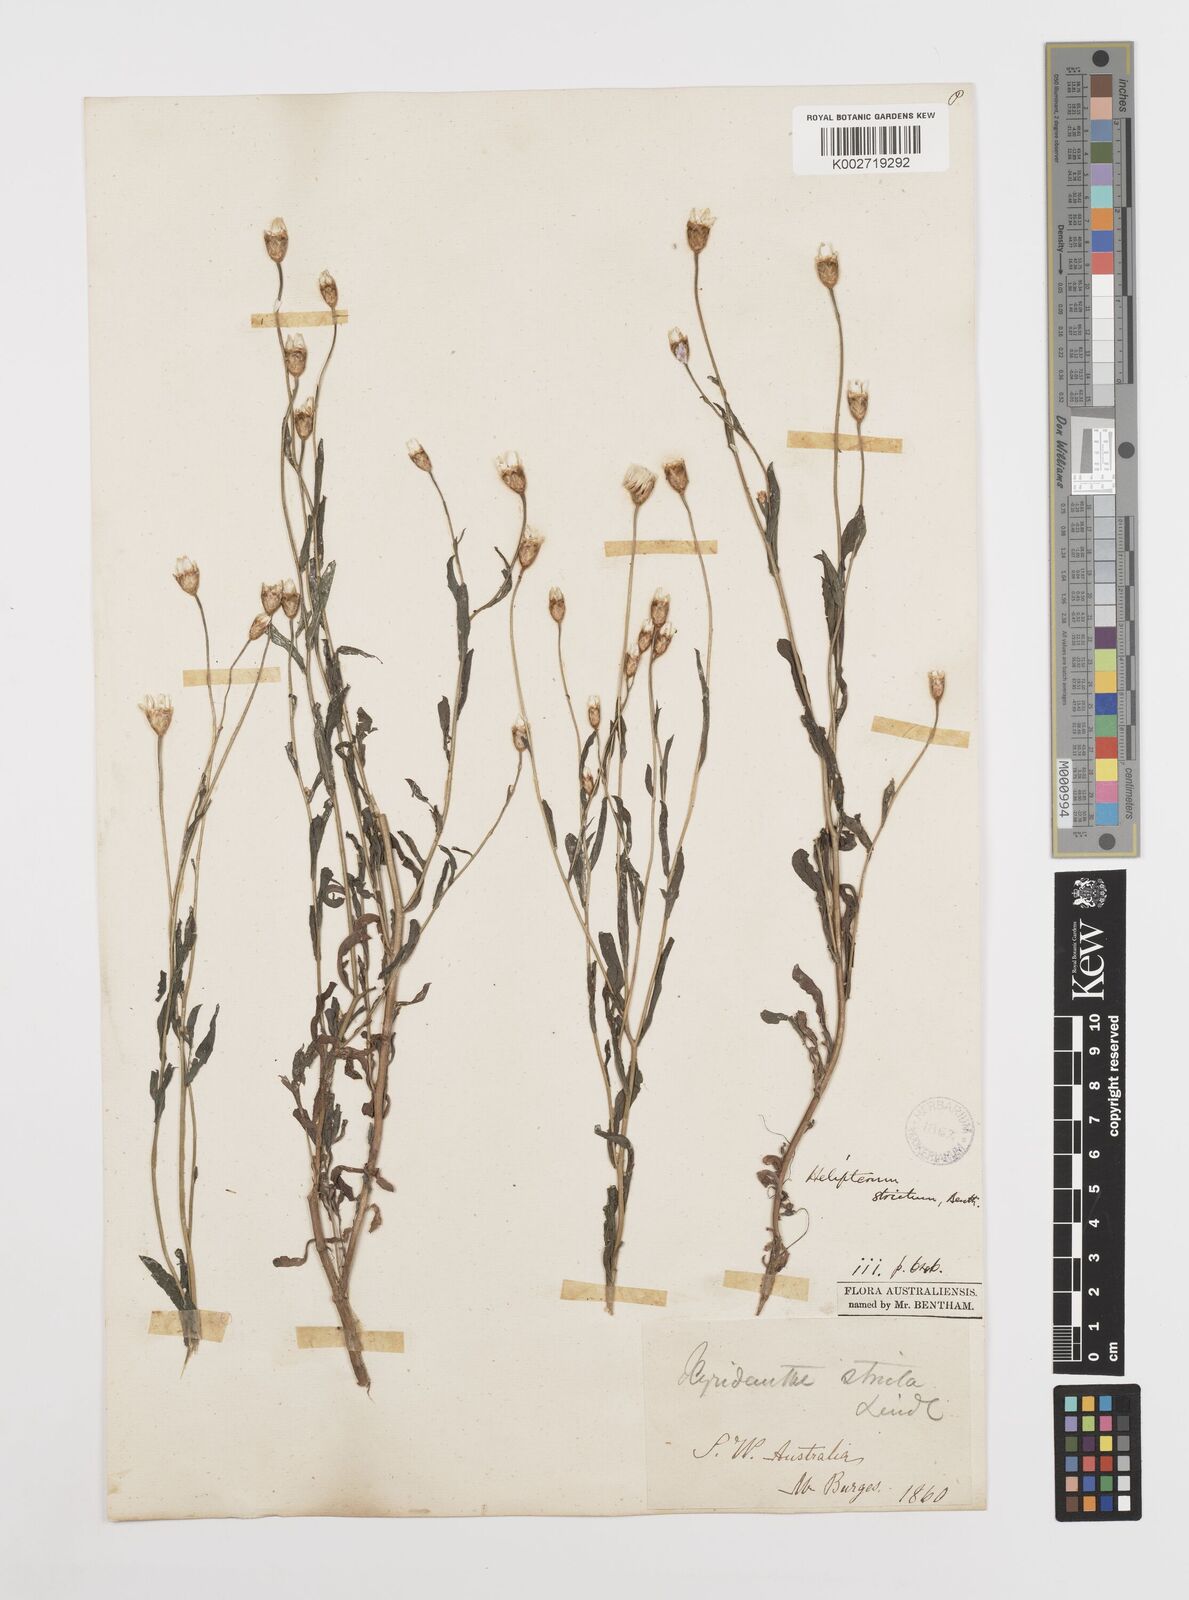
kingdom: Plantae
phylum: Tracheophyta
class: Magnoliopsida
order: Asterales
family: Asteraceae
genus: Rhodanthe
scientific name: Rhodanthe stricta
